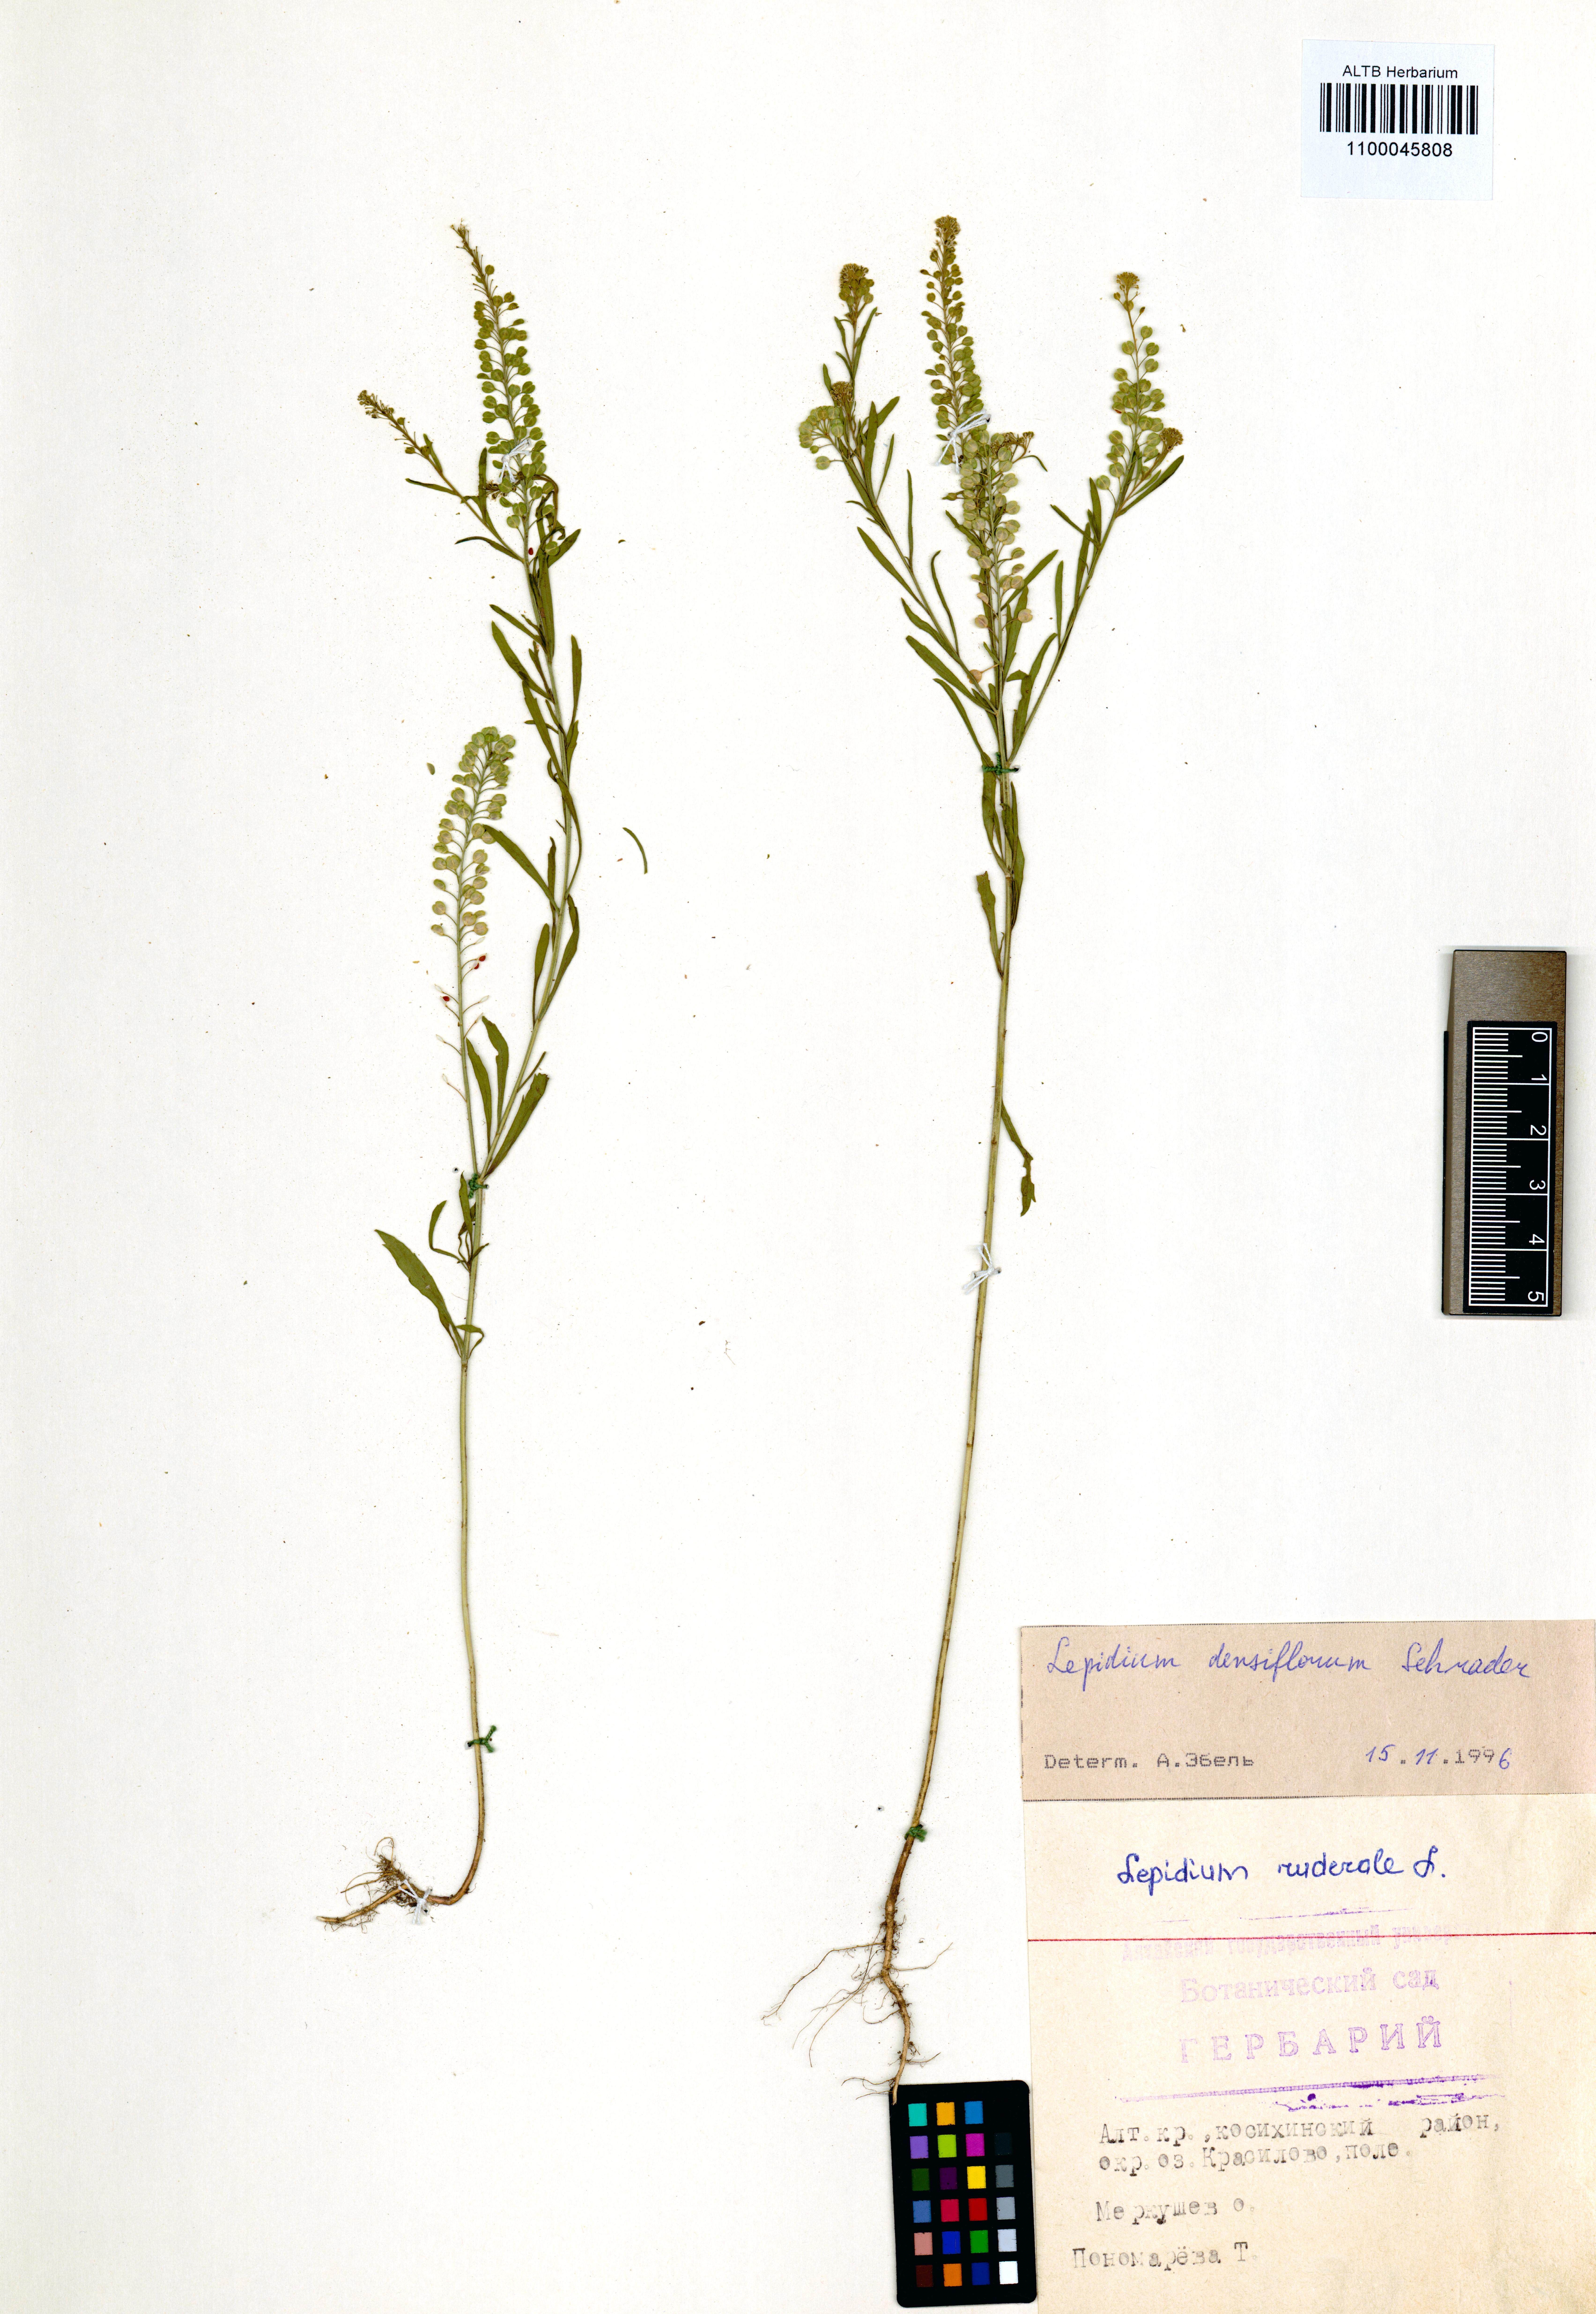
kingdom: Plantae
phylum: Tracheophyta
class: Magnoliopsida
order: Brassicales
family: Brassicaceae
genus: Lepidium
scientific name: Lepidium densiflorum
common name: Miner's pepperwort
